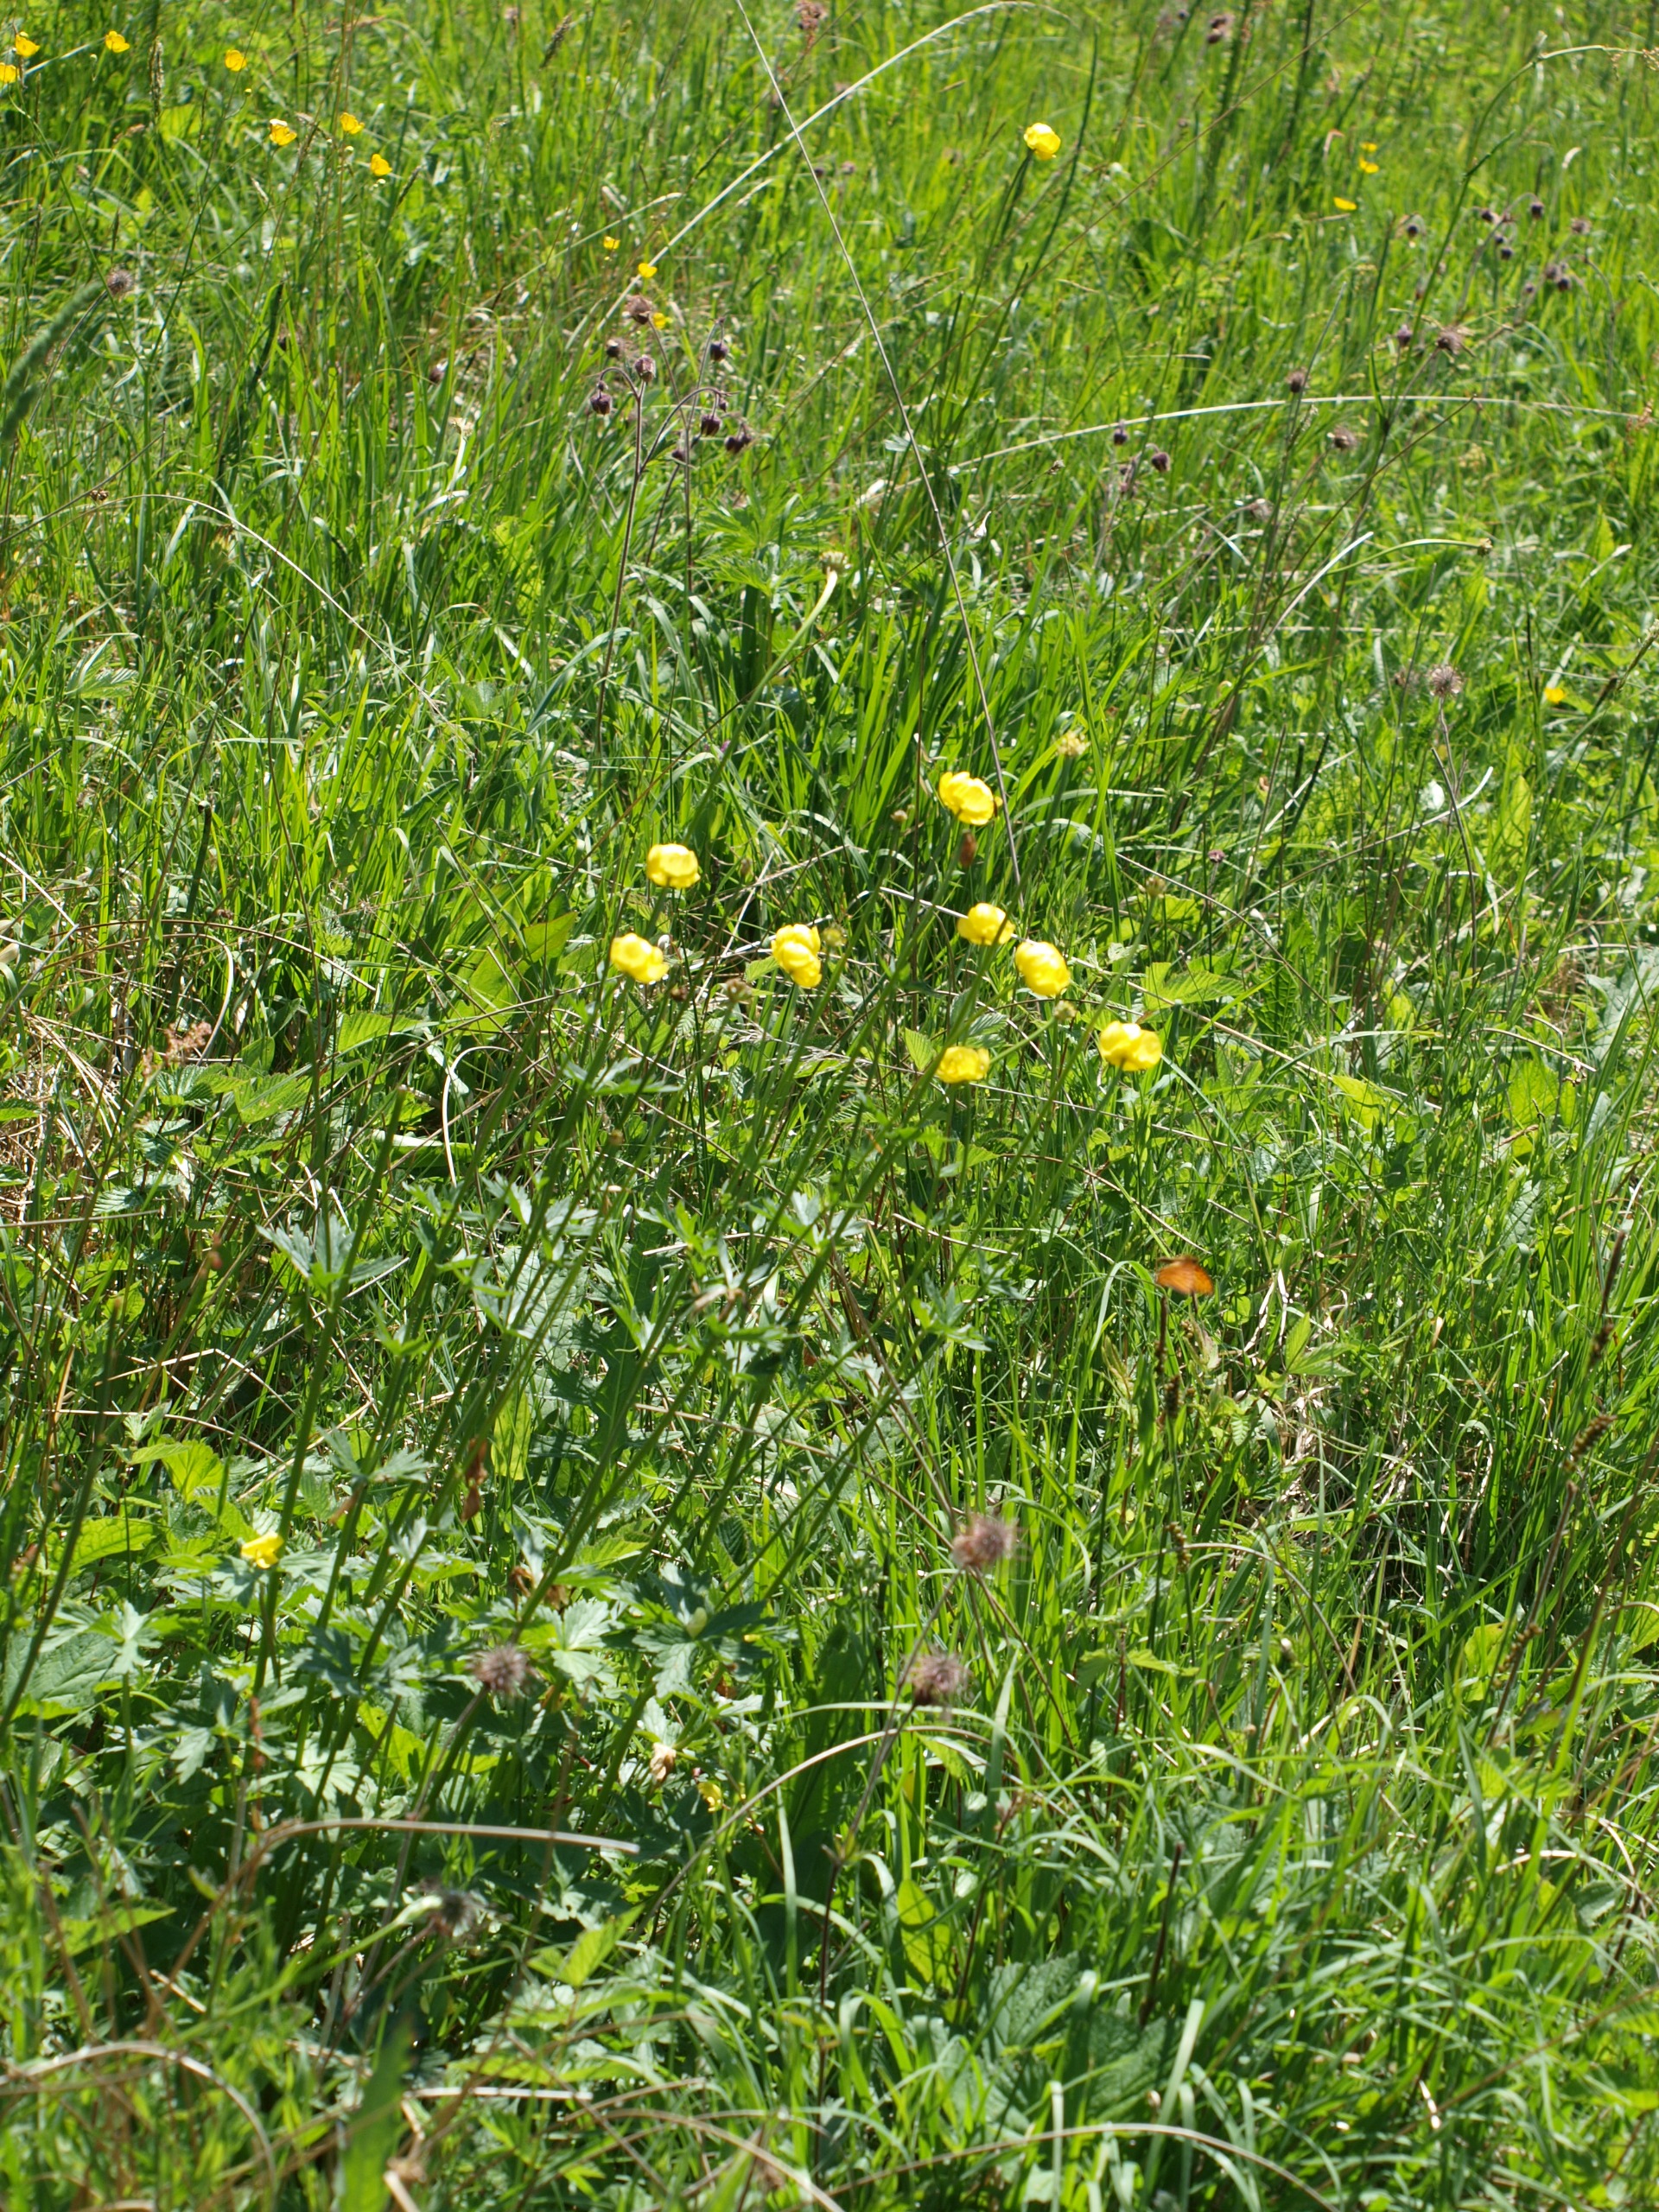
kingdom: Plantae
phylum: Tracheophyta
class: Magnoliopsida
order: Ranunculales
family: Ranunculaceae
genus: Trollius
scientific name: Trollius europaeus
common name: Engblomme
